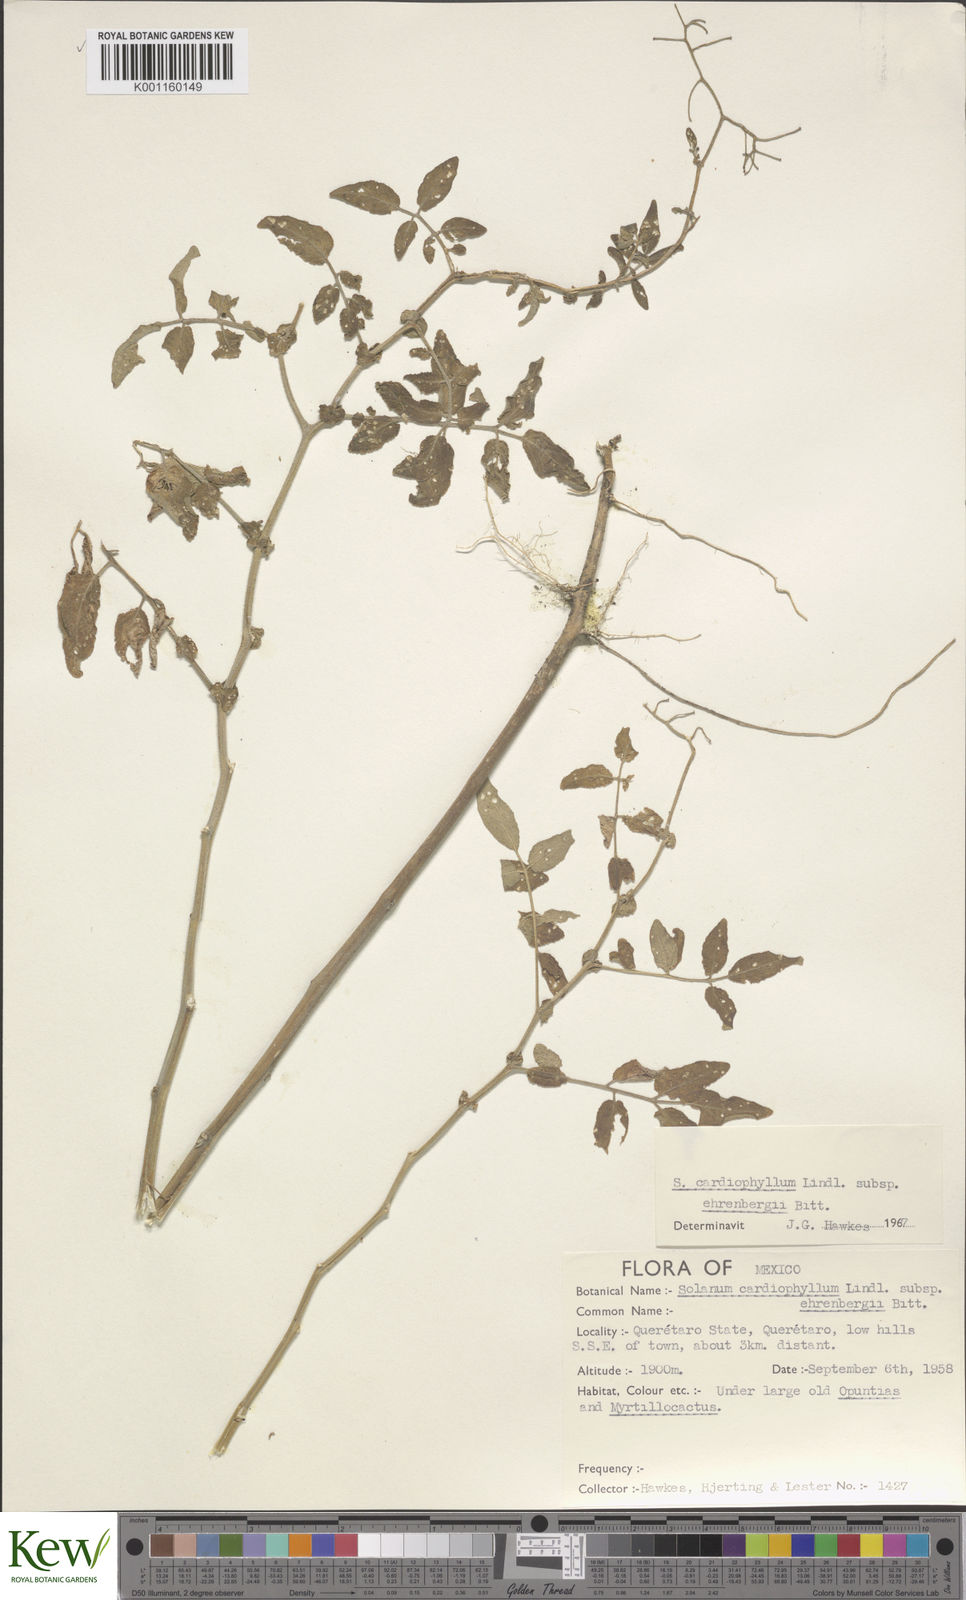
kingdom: Plantae
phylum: Tracheophyta
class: Magnoliopsida
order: Solanales
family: Solanaceae
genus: Solanum
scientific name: Solanum cardiophyllum
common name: Heartleaf horsenettle
